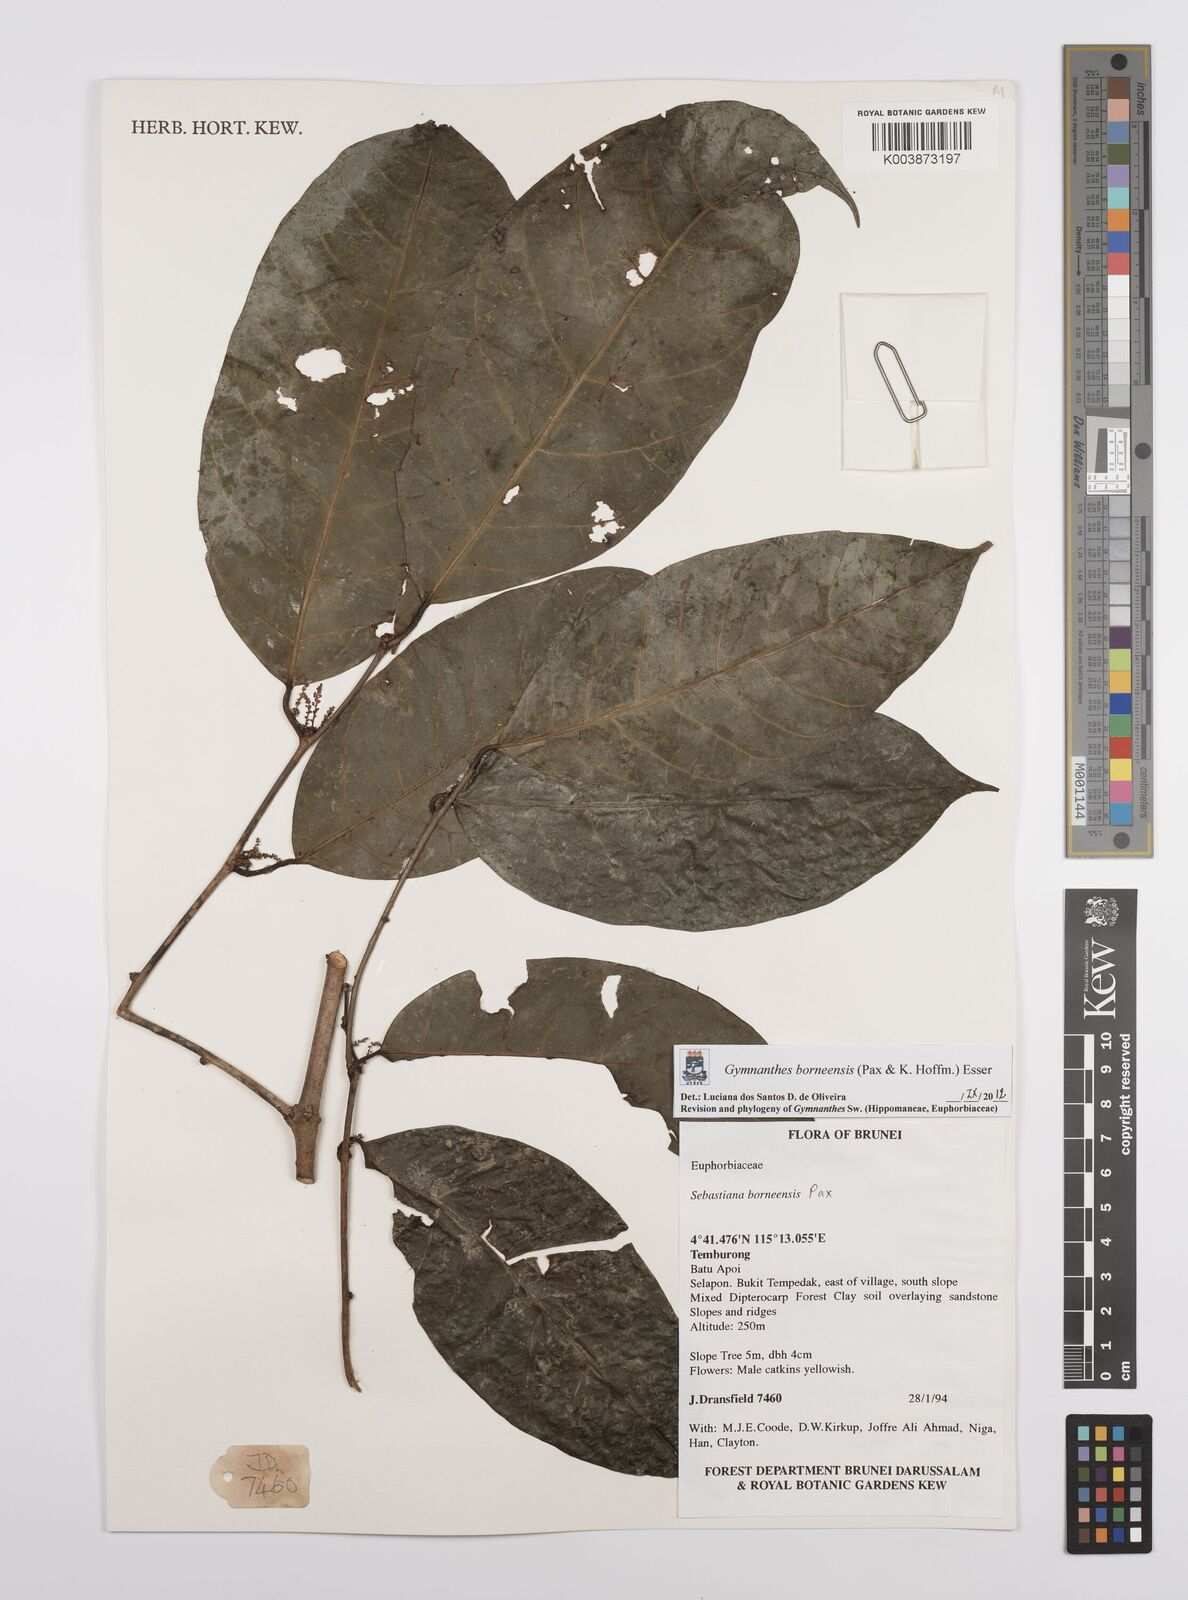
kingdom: Plantae
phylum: Tracheophyta
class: Magnoliopsida
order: Malpighiales
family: Euphorbiaceae
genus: Gymnanthes
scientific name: Gymnanthes borneensis
